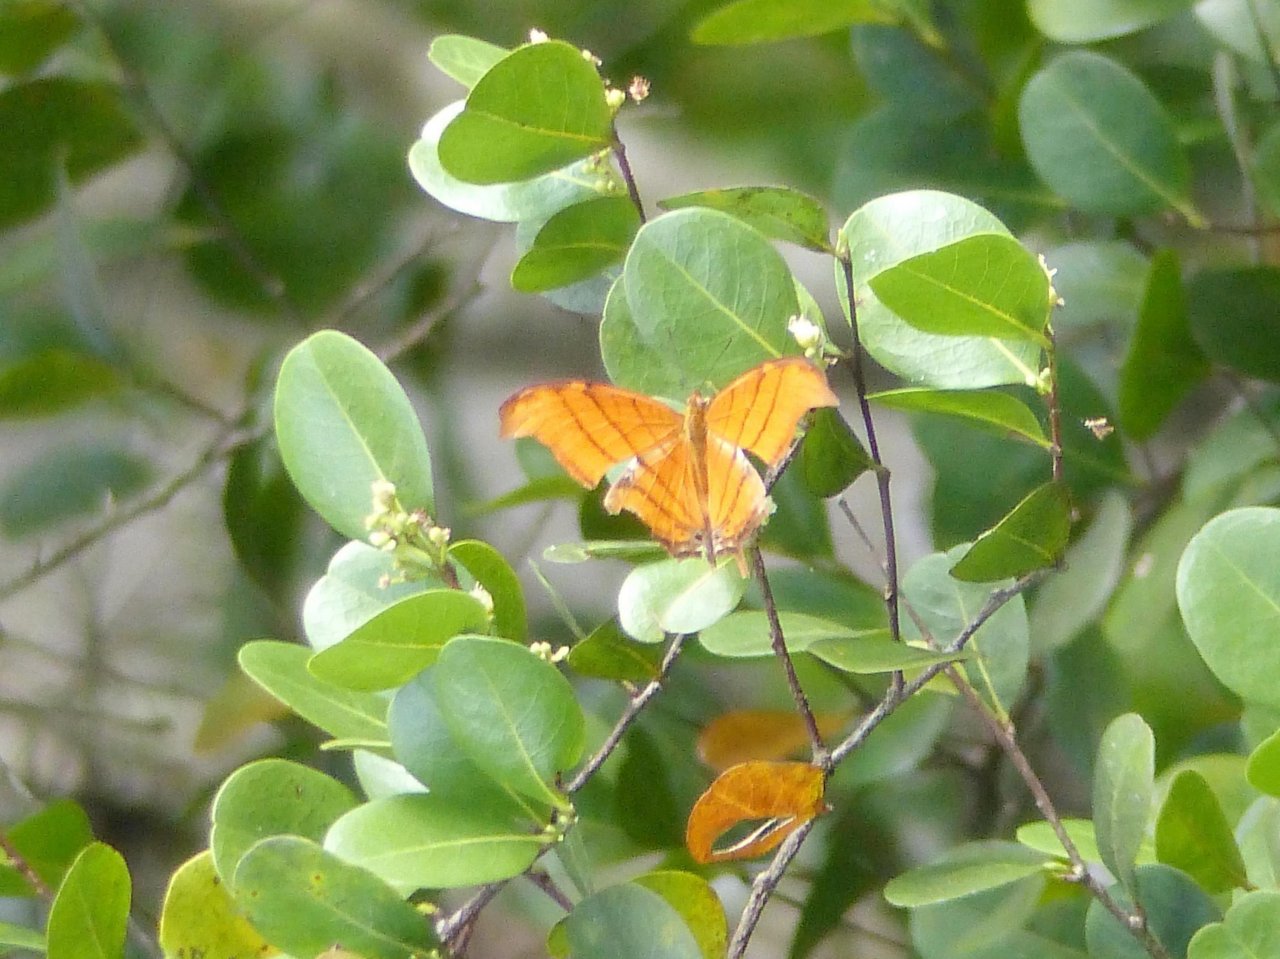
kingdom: Animalia
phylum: Arthropoda
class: Insecta
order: Lepidoptera
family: Nymphalidae
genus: Marpesia
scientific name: Marpesia petreus
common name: Ruddy Daggerwing
